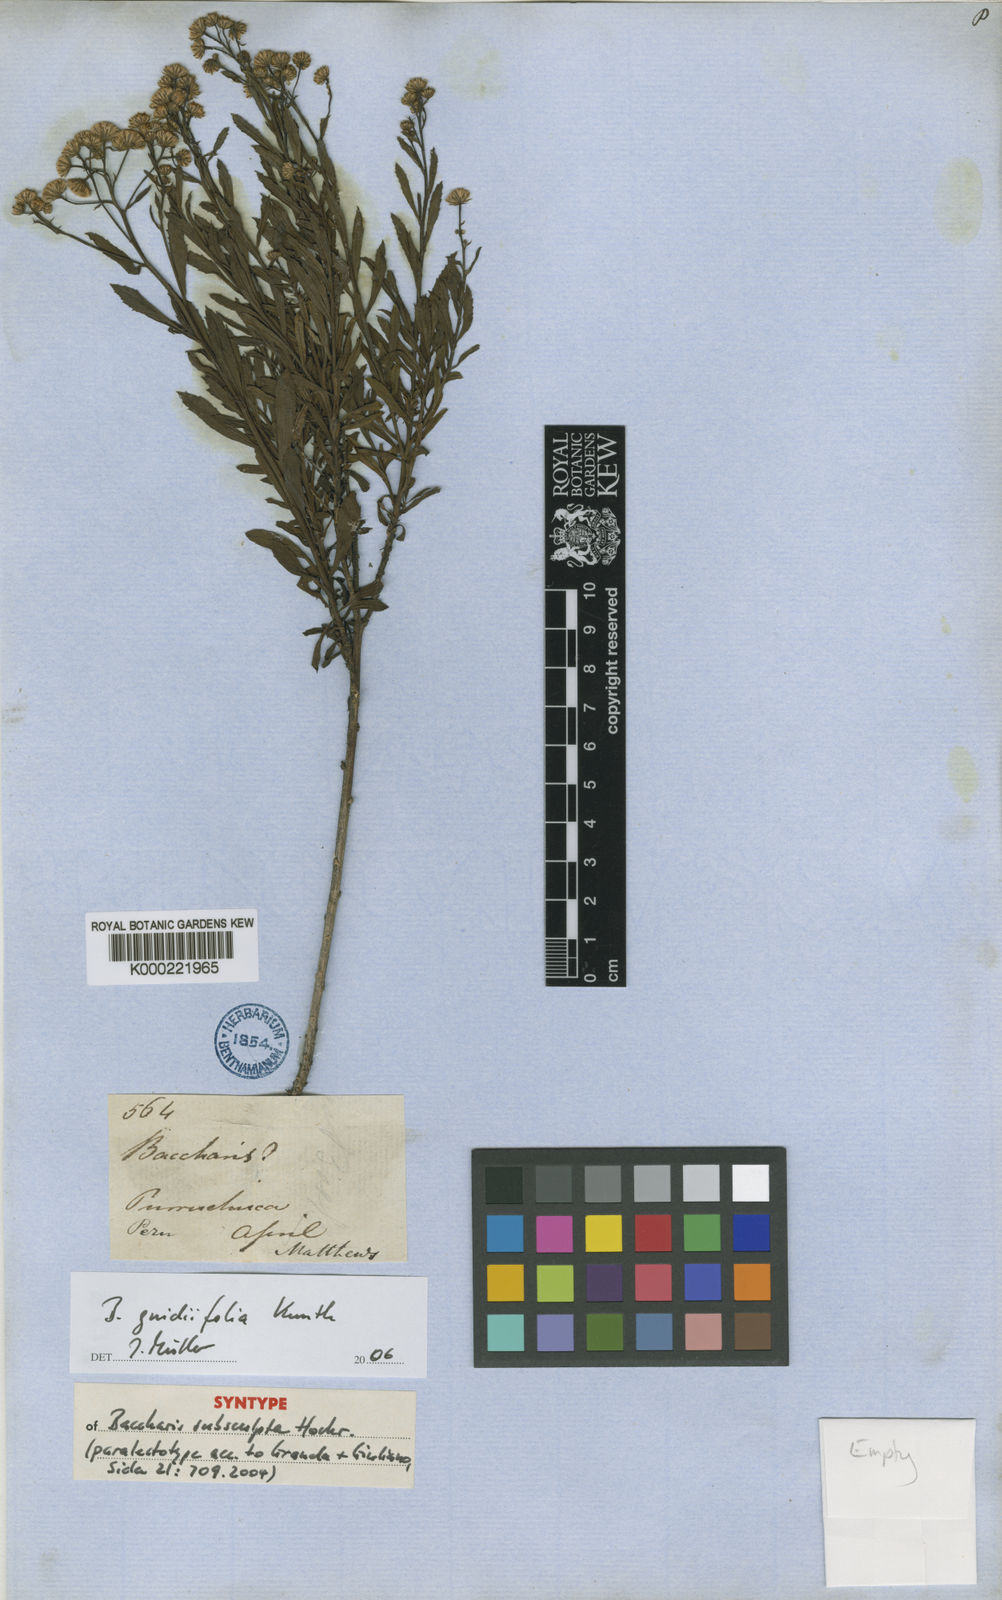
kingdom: Plantae
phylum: Tracheophyta
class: Magnoliopsida
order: Asterales
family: Asteraceae
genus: Baccharis
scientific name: Baccharis gnidiifolia
